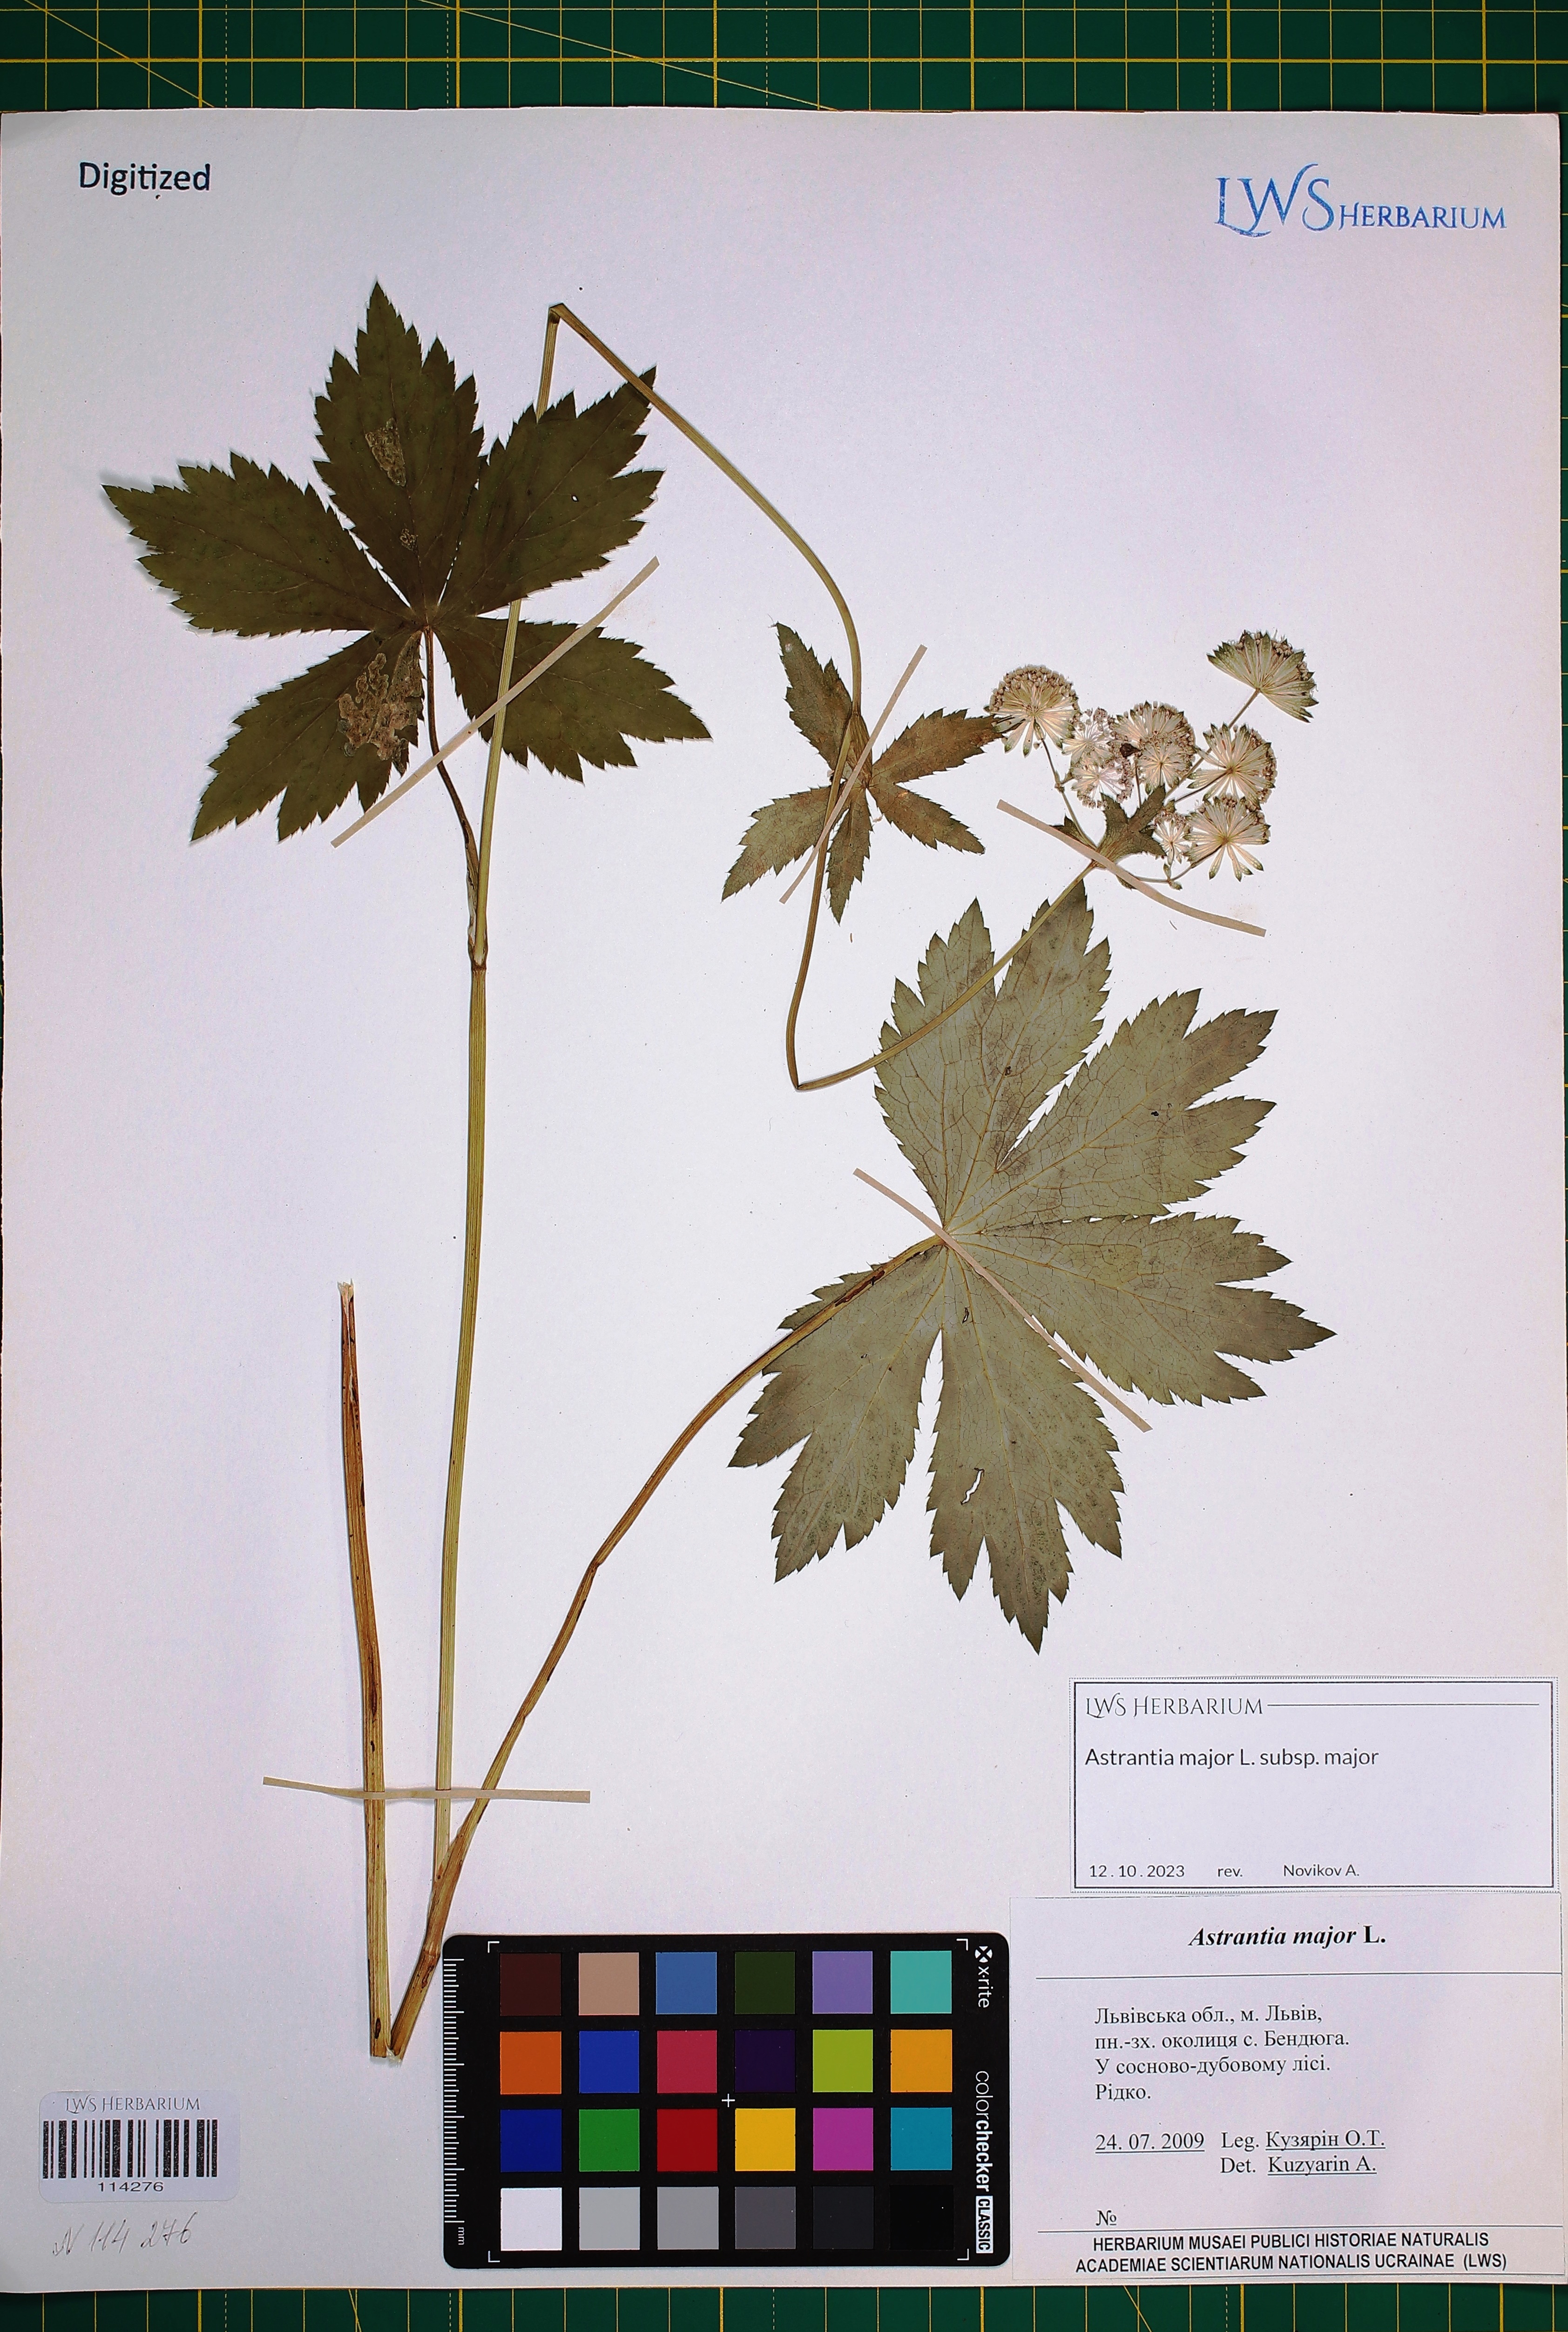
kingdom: Plantae
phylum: Tracheophyta
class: Magnoliopsida
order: Apiales
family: Apiaceae
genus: Astrantia
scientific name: Astrantia major
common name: Greater masterwort
